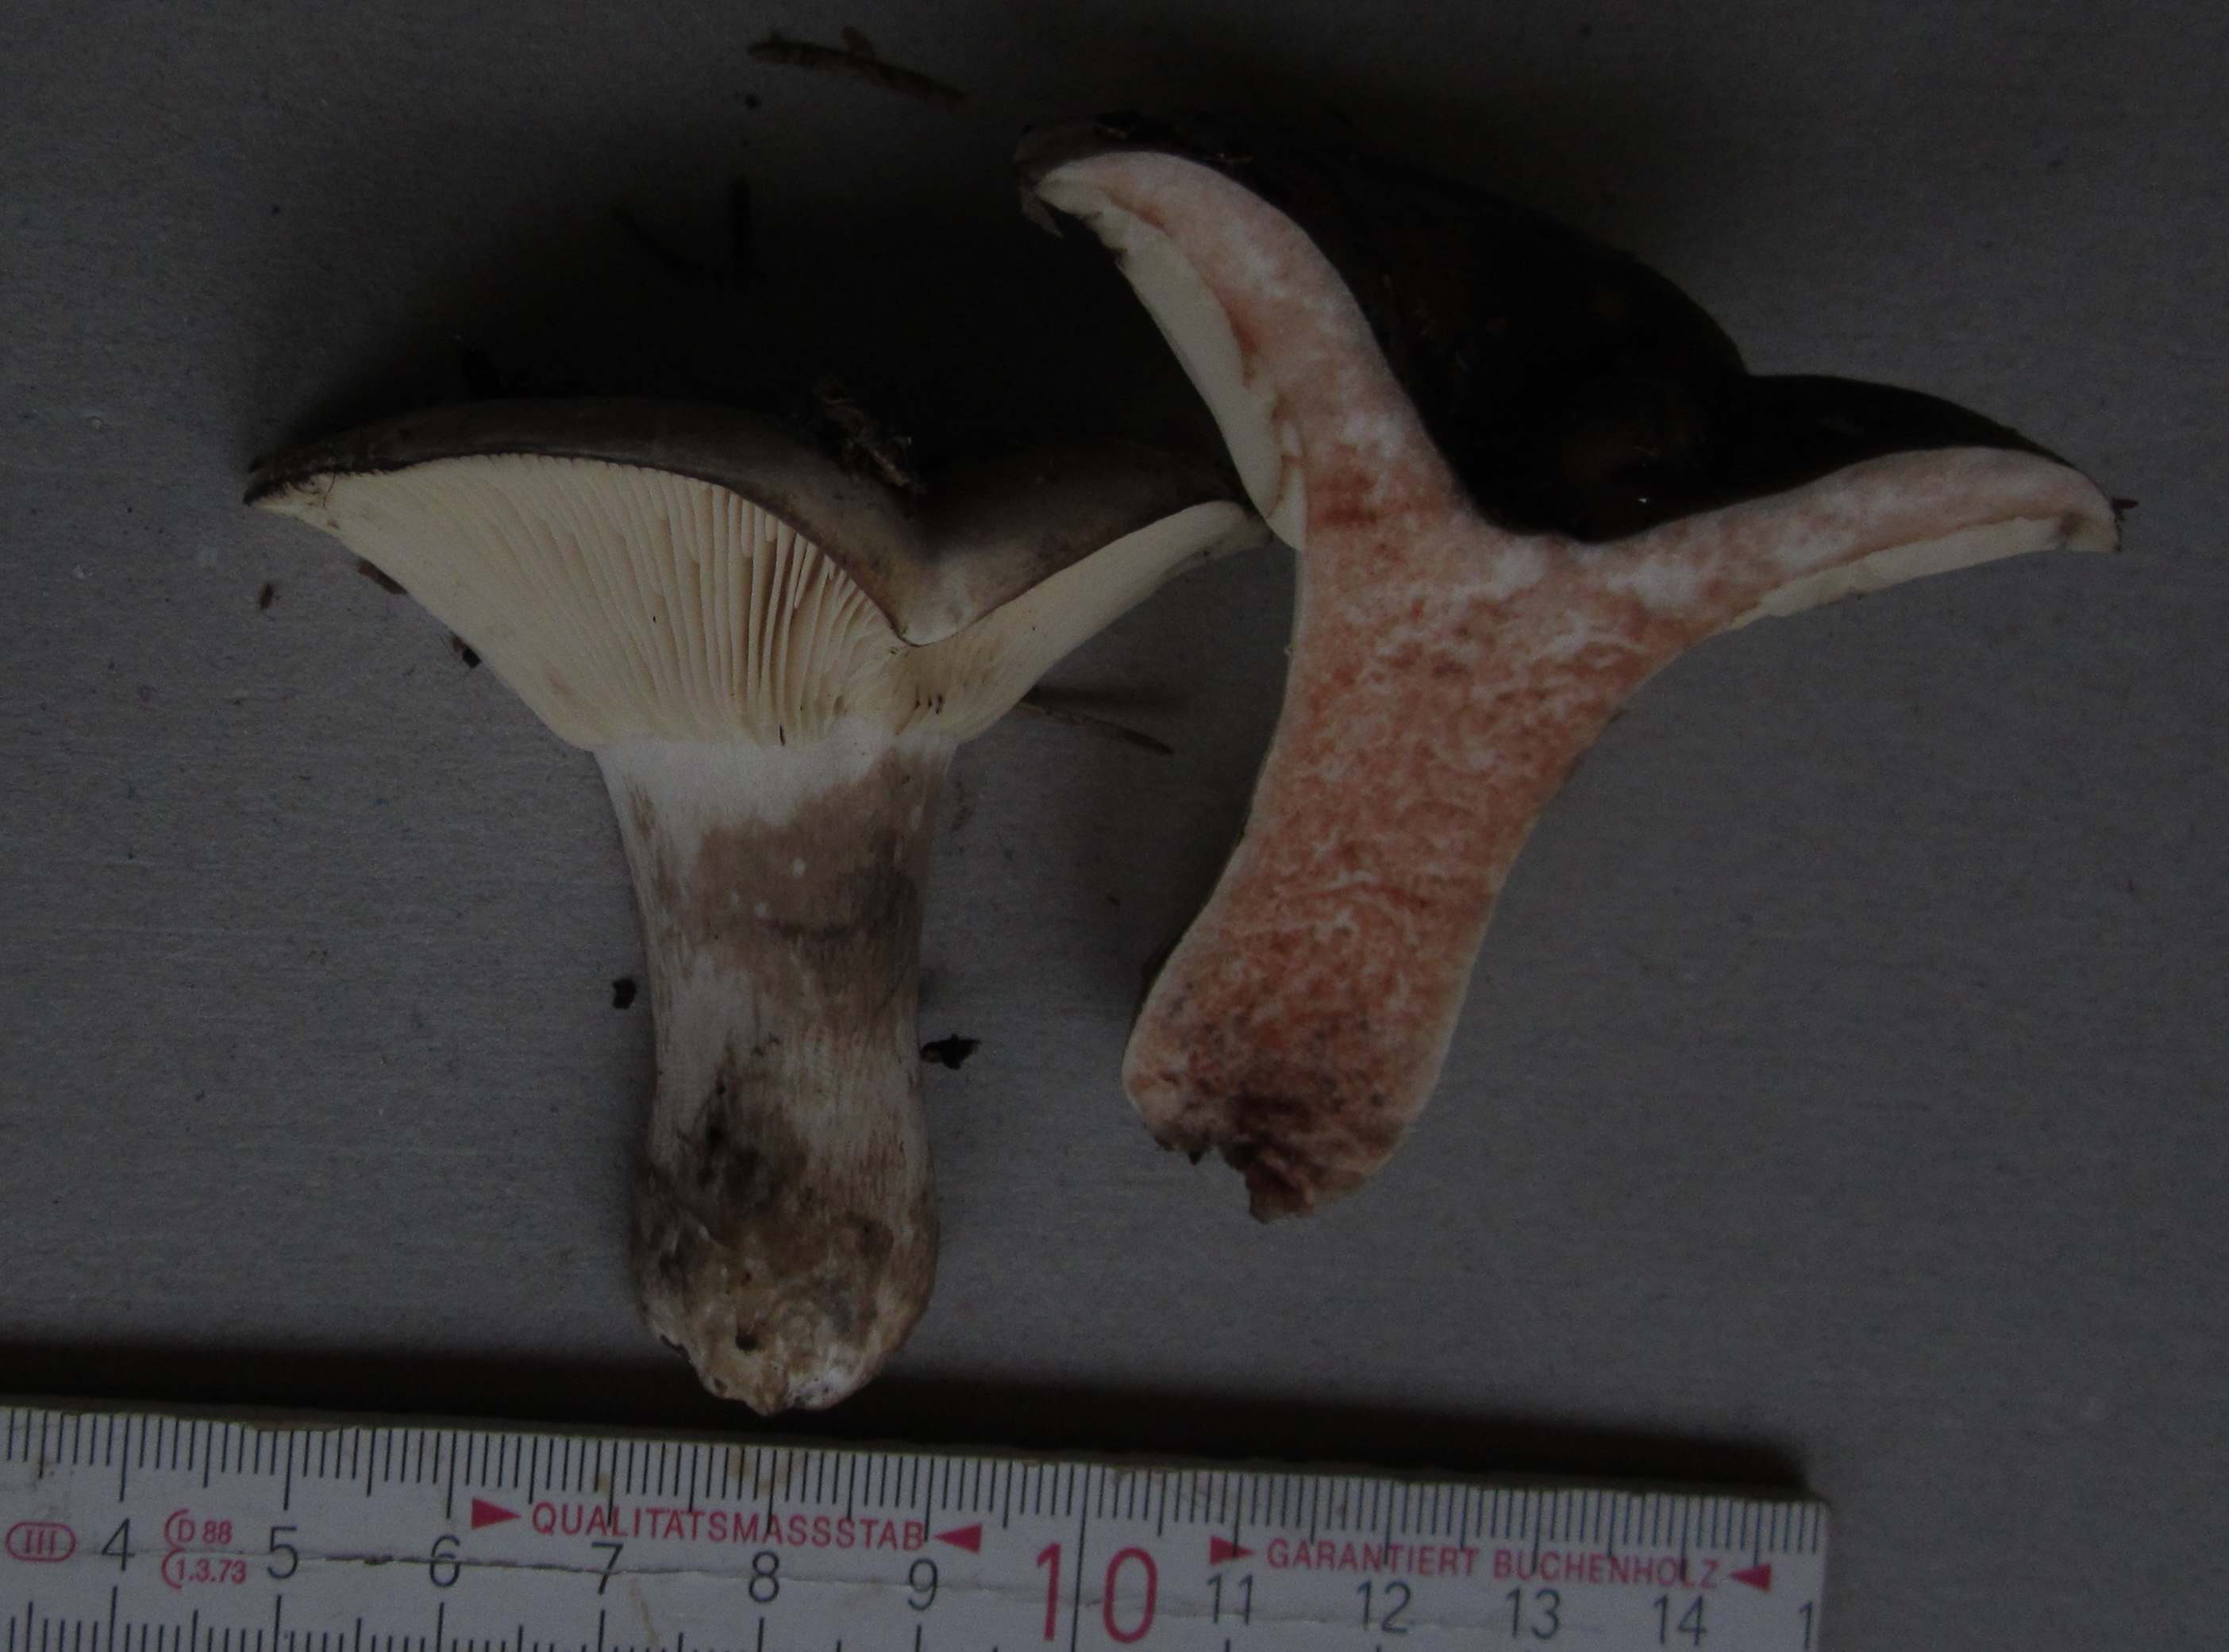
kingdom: Fungi
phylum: Basidiomycota
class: Agaricomycetes
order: Russulales
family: Russulaceae
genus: Russula
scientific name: Russula densifolia
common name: tætbladet skørhat
